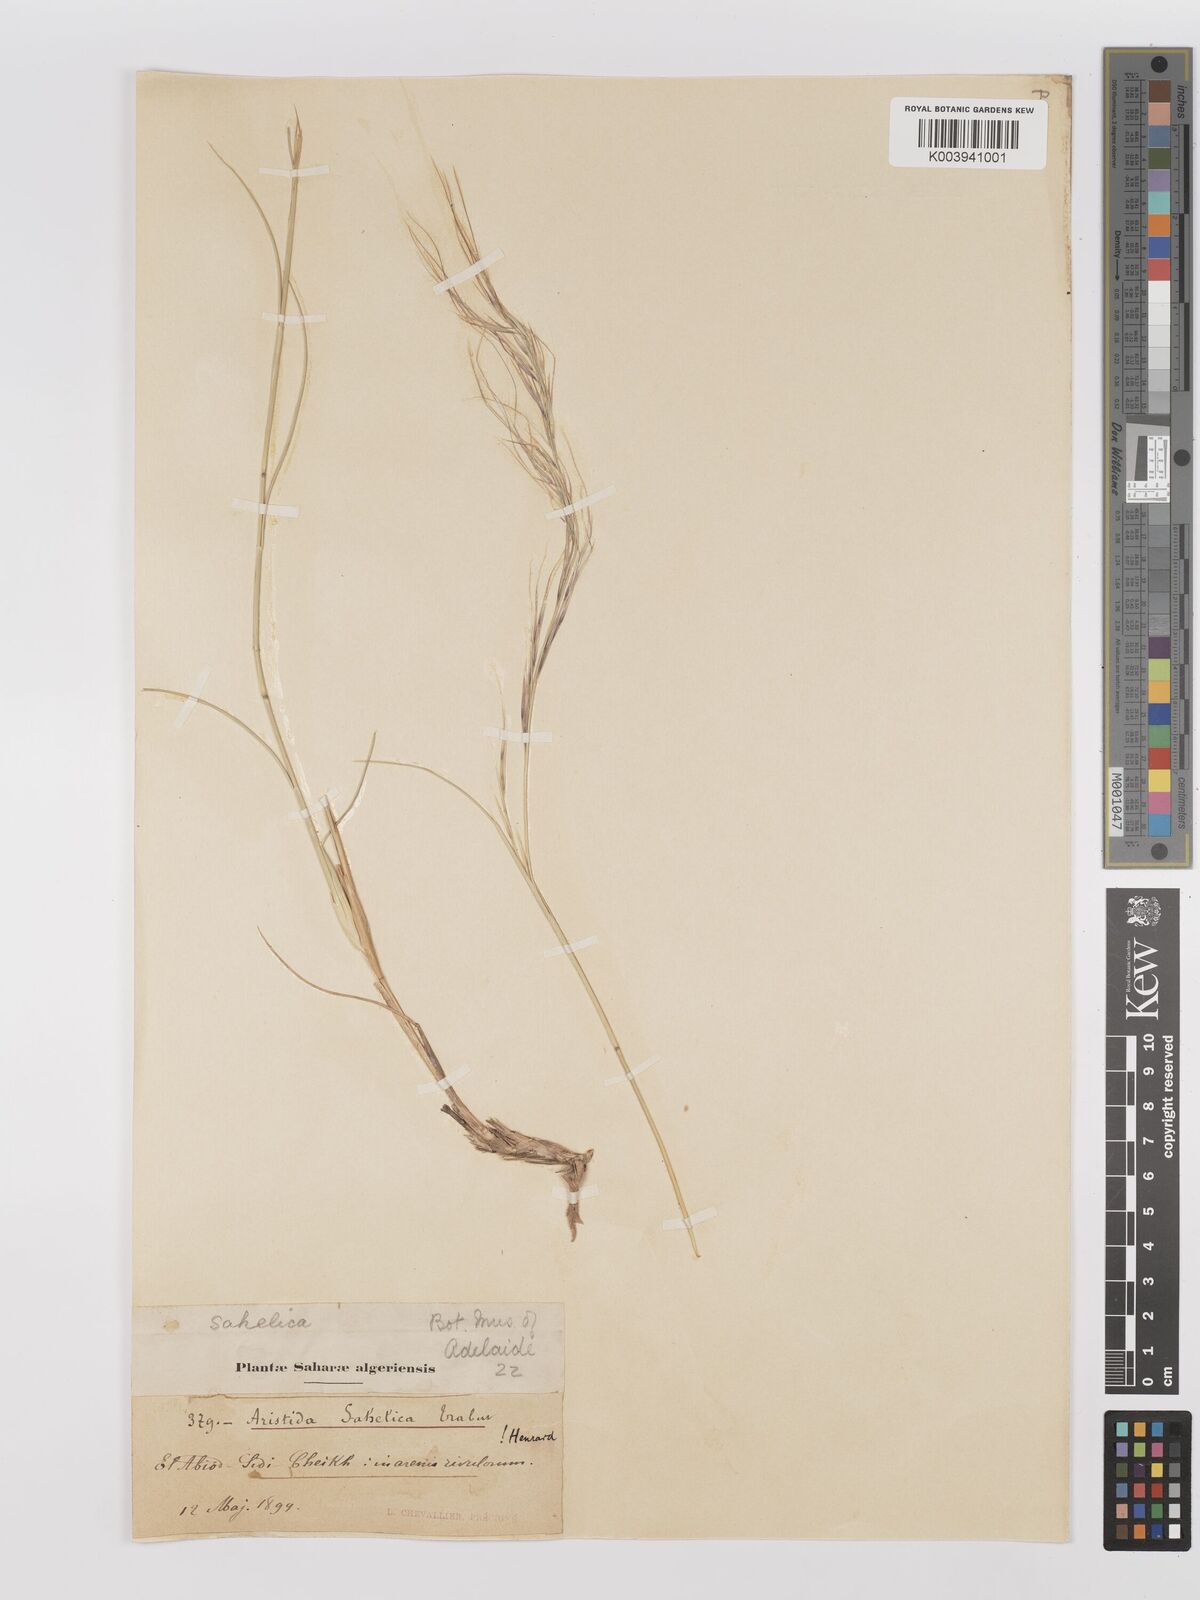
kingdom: Plantae
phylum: Tracheophyta
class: Liliopsida
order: Poales
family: Poaceae
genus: Stipagrostis
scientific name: Stipagrostis sahelica
